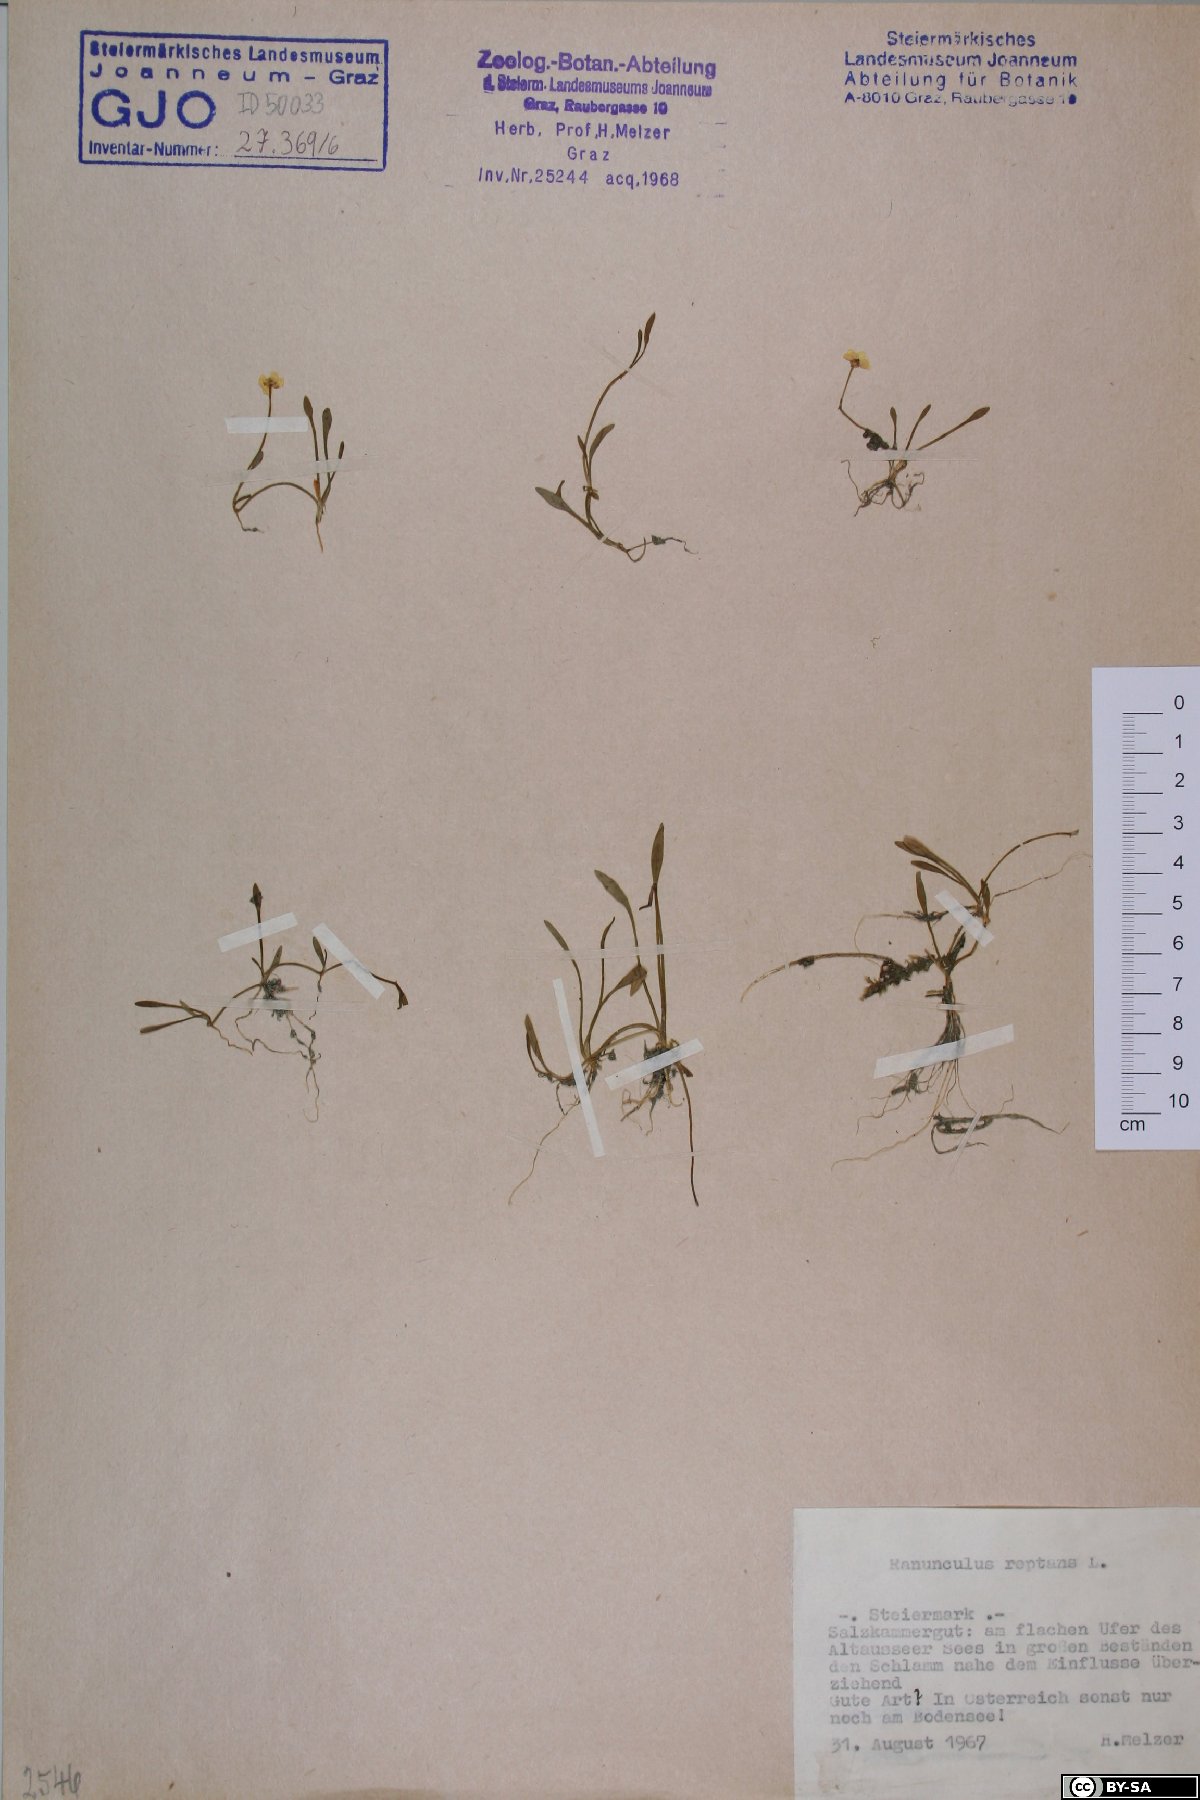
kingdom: Plantae
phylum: Tracheophyta
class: Magnoliopsida
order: Ranunculales
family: Ranunculaceae
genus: Ranunculus
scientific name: Ranunculus reptans
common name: Creeping spearwort
